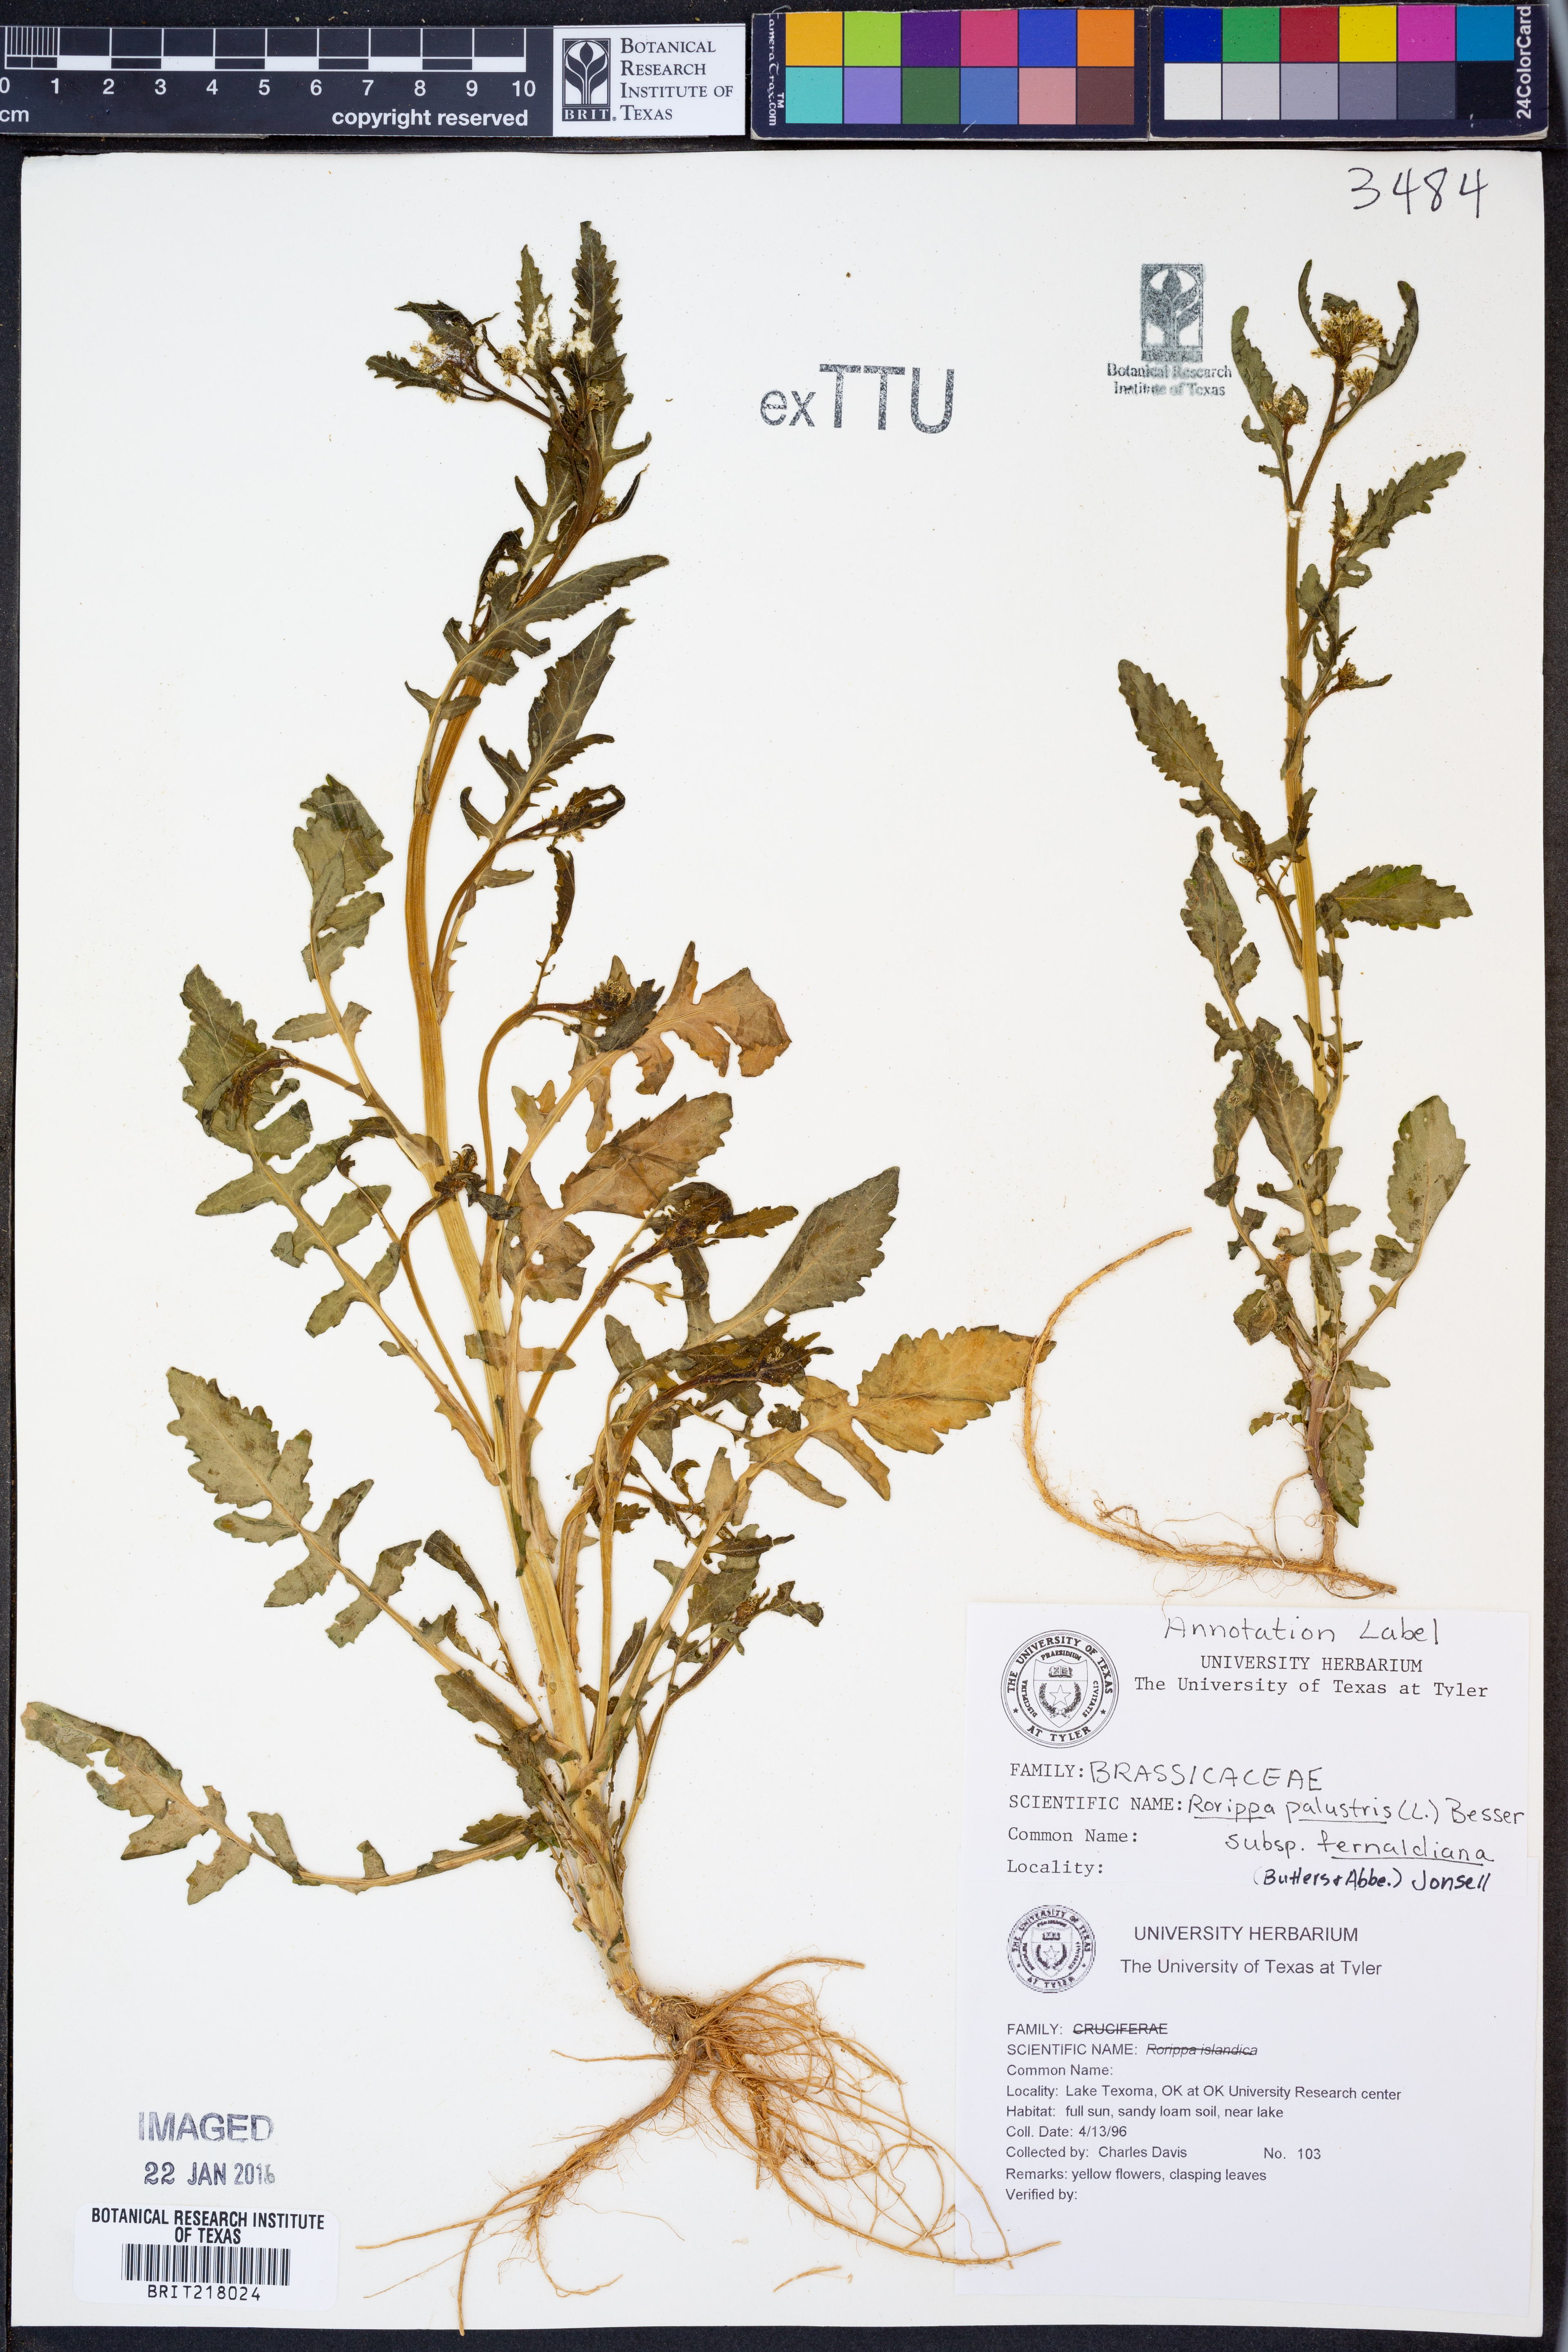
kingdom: Plantae
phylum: Tracheophyta
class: Magnoliopsida
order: Brassicales
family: Brassicaceae
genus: Rorippa
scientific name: Rorippa palustris
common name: Marsh yellow-cress
